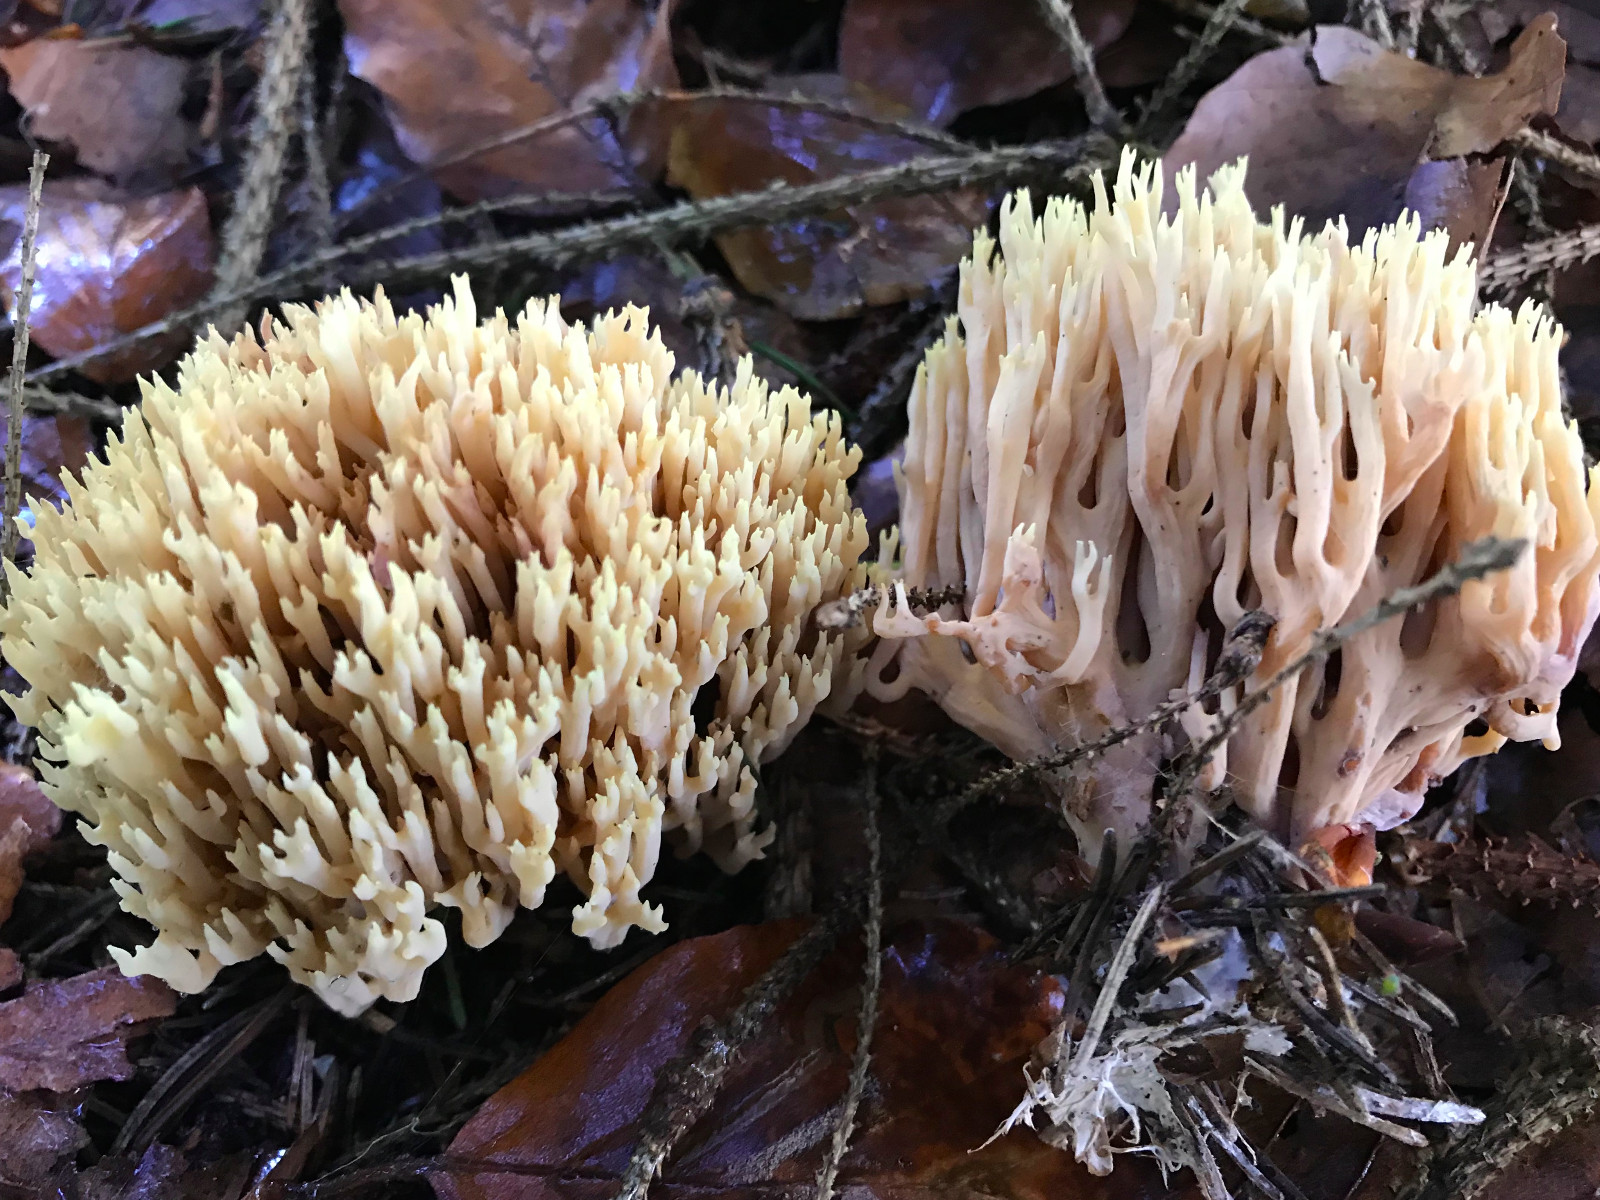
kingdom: Fungi
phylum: Basidiomycota
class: Agaricomycetes
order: Gomphales
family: Gomphaceae
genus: Ramaria
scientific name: Ramaria stricta
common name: rank koralsvamp
